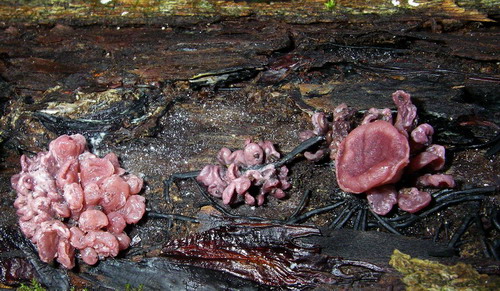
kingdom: Fungi
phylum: Ascomycota
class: Leotiomycetes
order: Helotiales
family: Gelatinodiscaceae
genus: Ascocoryne
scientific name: Ascocoryne sarcoides
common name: rødlilla sejskive
